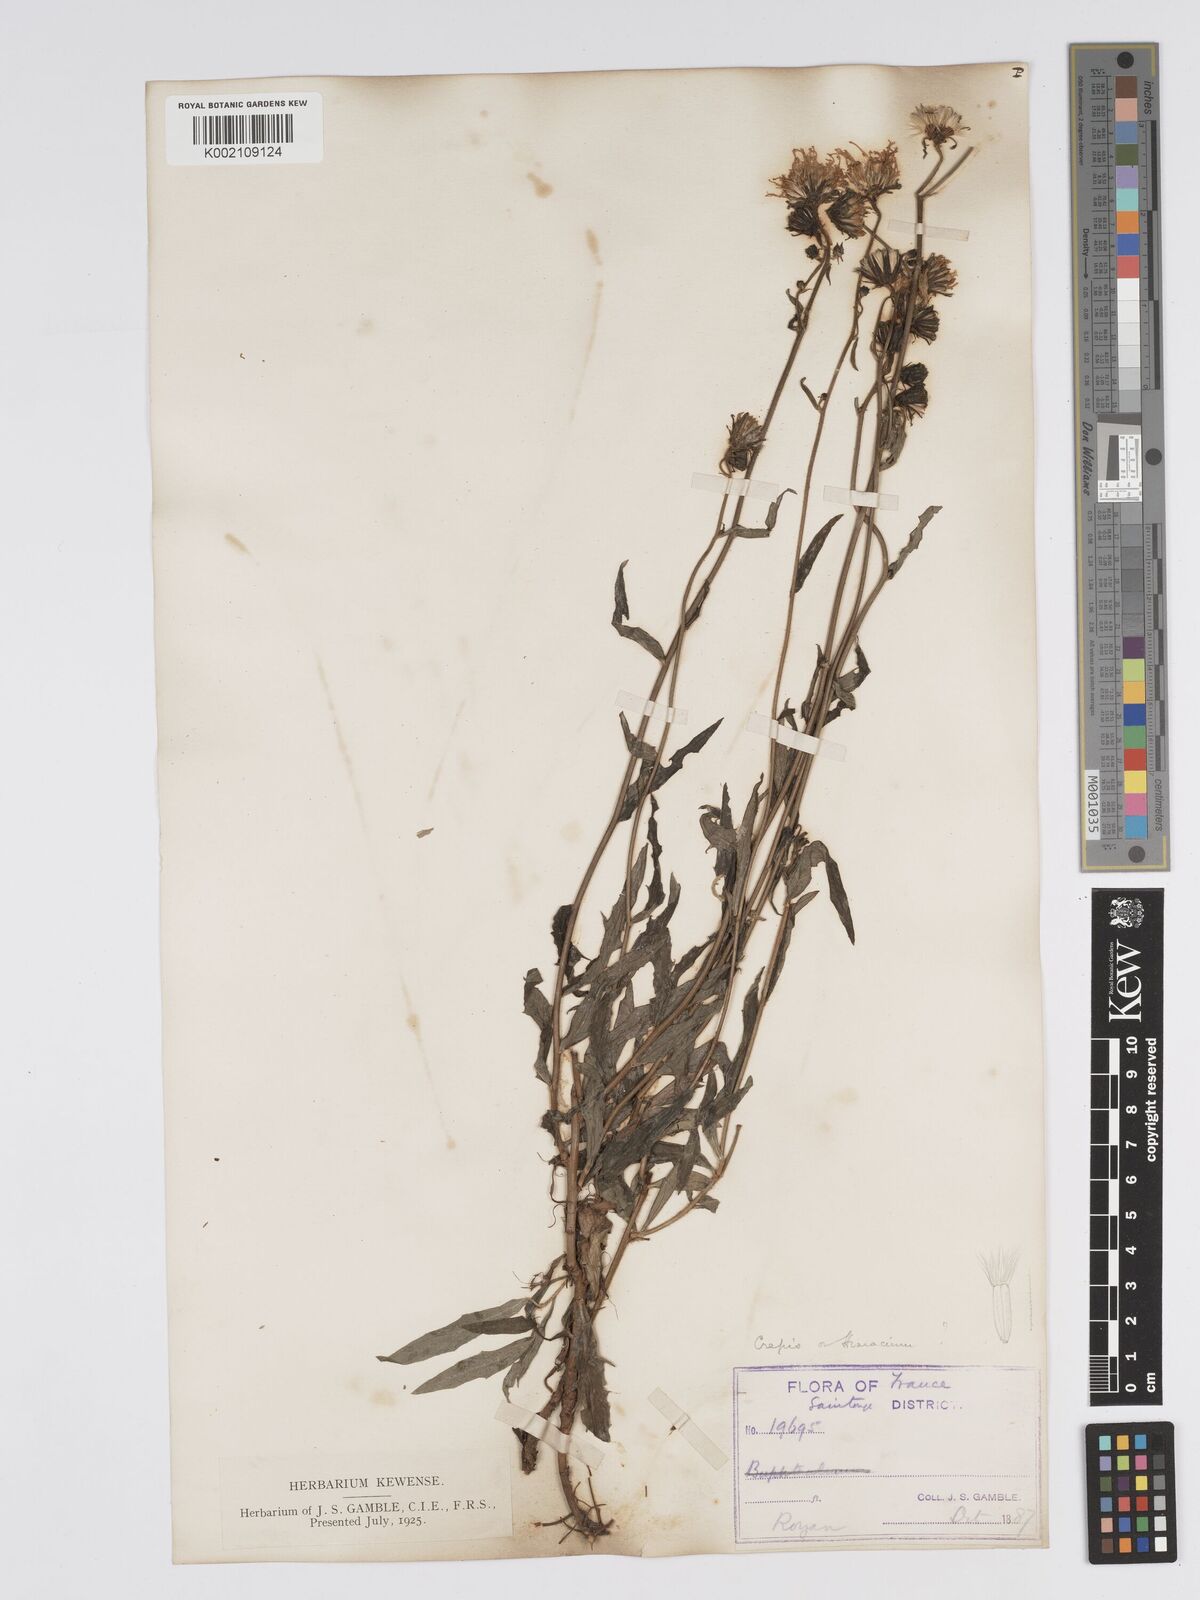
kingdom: Plantae
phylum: Tracheophyta
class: Magnoliopsida
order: Asterales
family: Asteraceae
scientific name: Asteraceae
